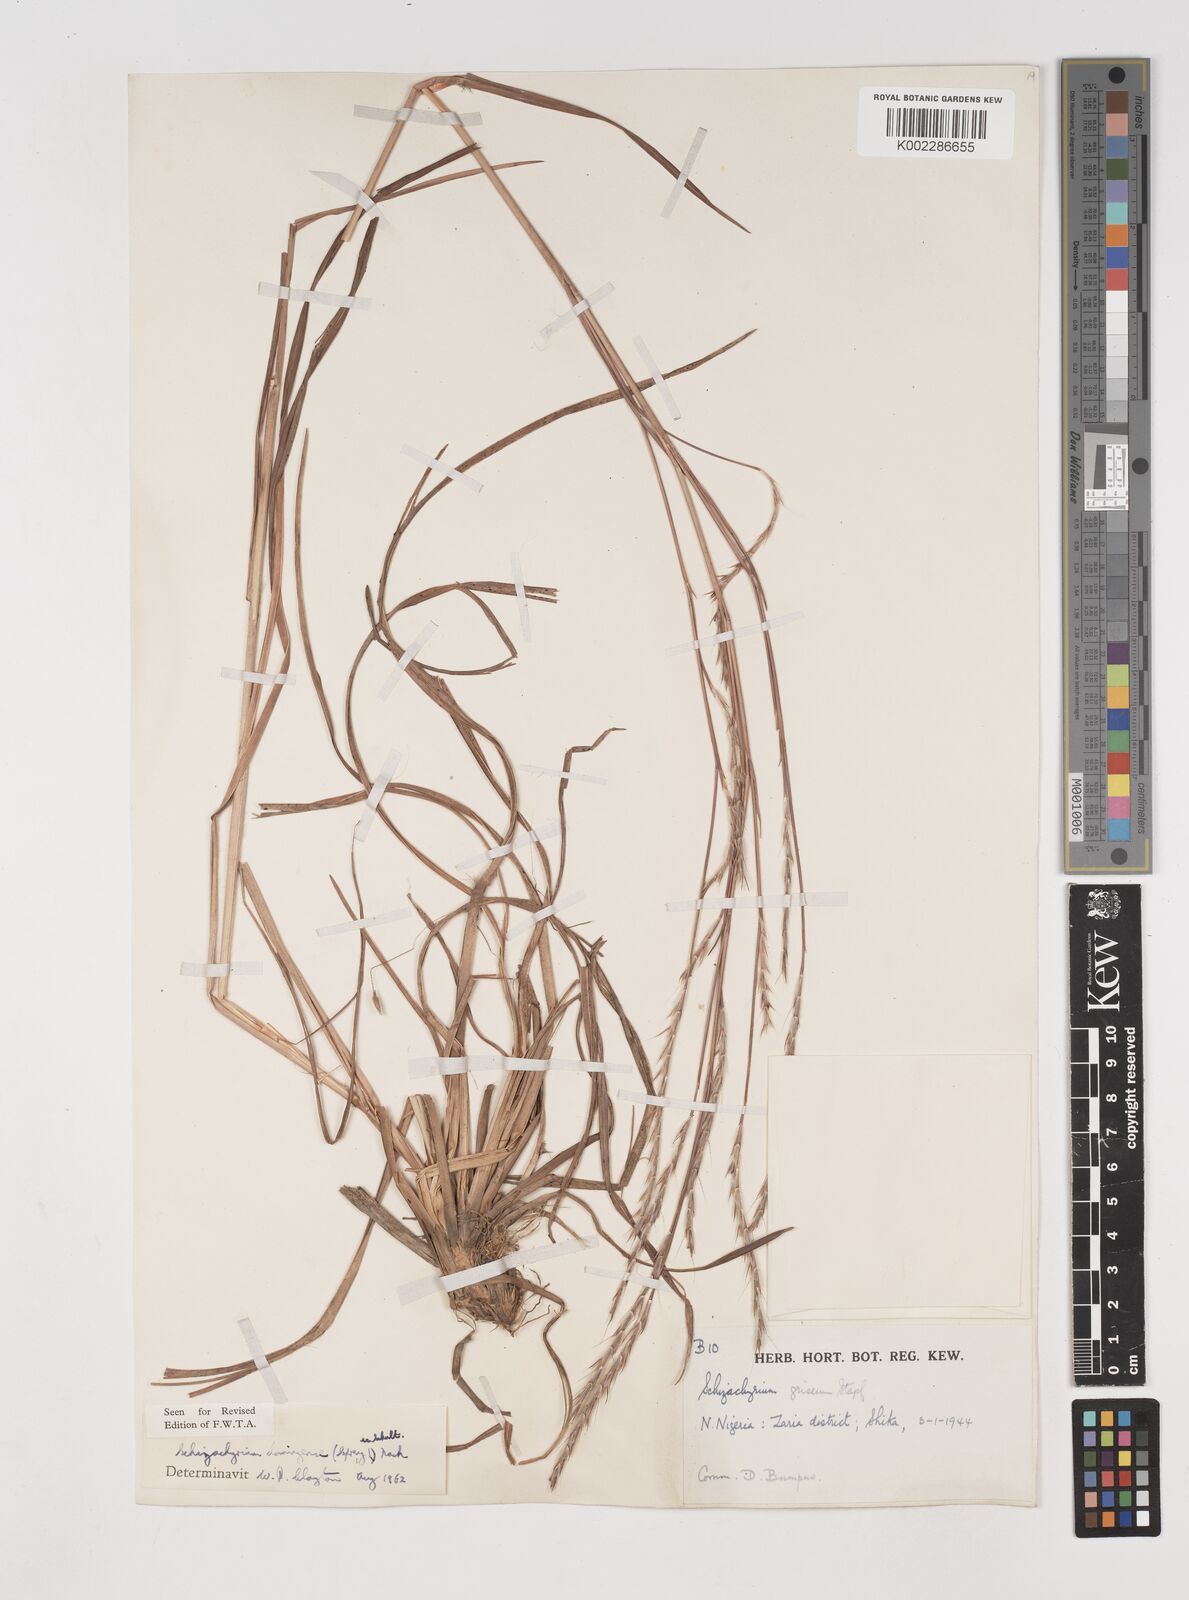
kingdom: Plantae
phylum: Tracheophyta
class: Liliopsida
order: Poales
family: Poaceae
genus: Schizachyrium
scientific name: Schizachyrium sanguineum
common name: Crimson bluestem
